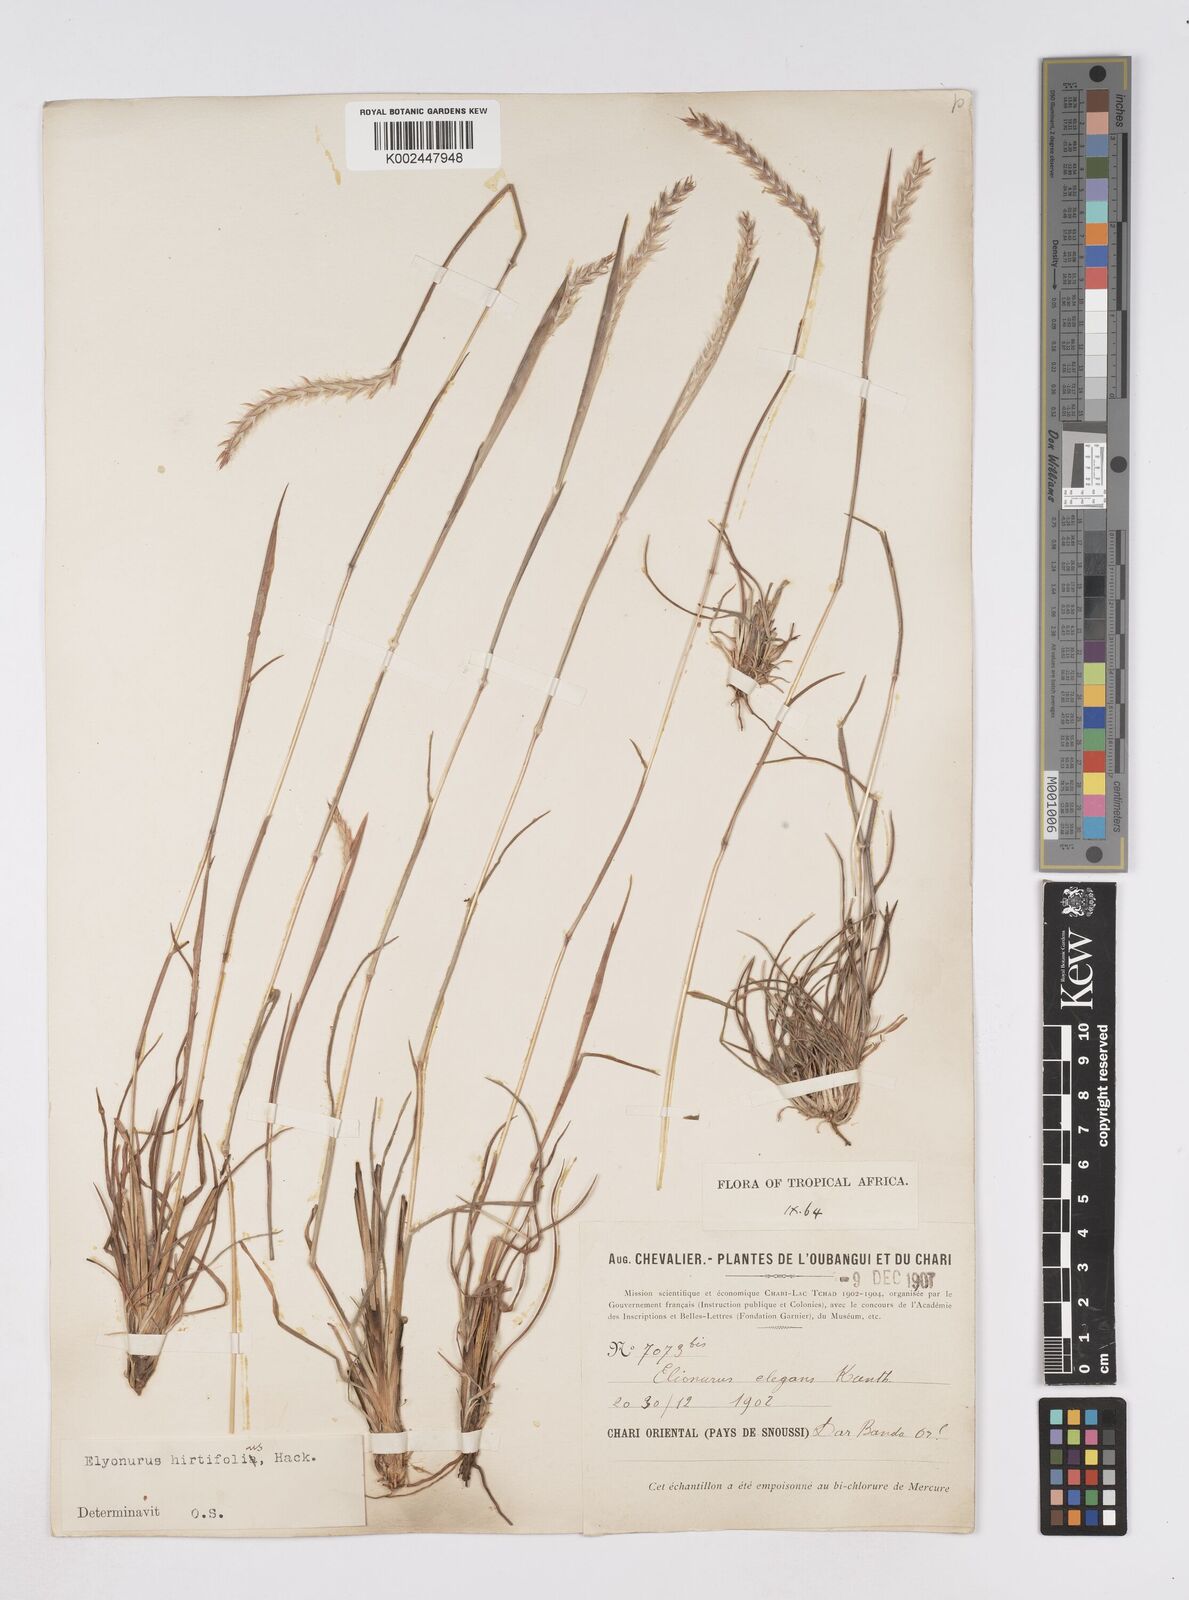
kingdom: Plantae
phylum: Tracheophyta
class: Liliopsida
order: Poales
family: Poaceae
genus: Elionurus
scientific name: Elionurus hirtifolius
